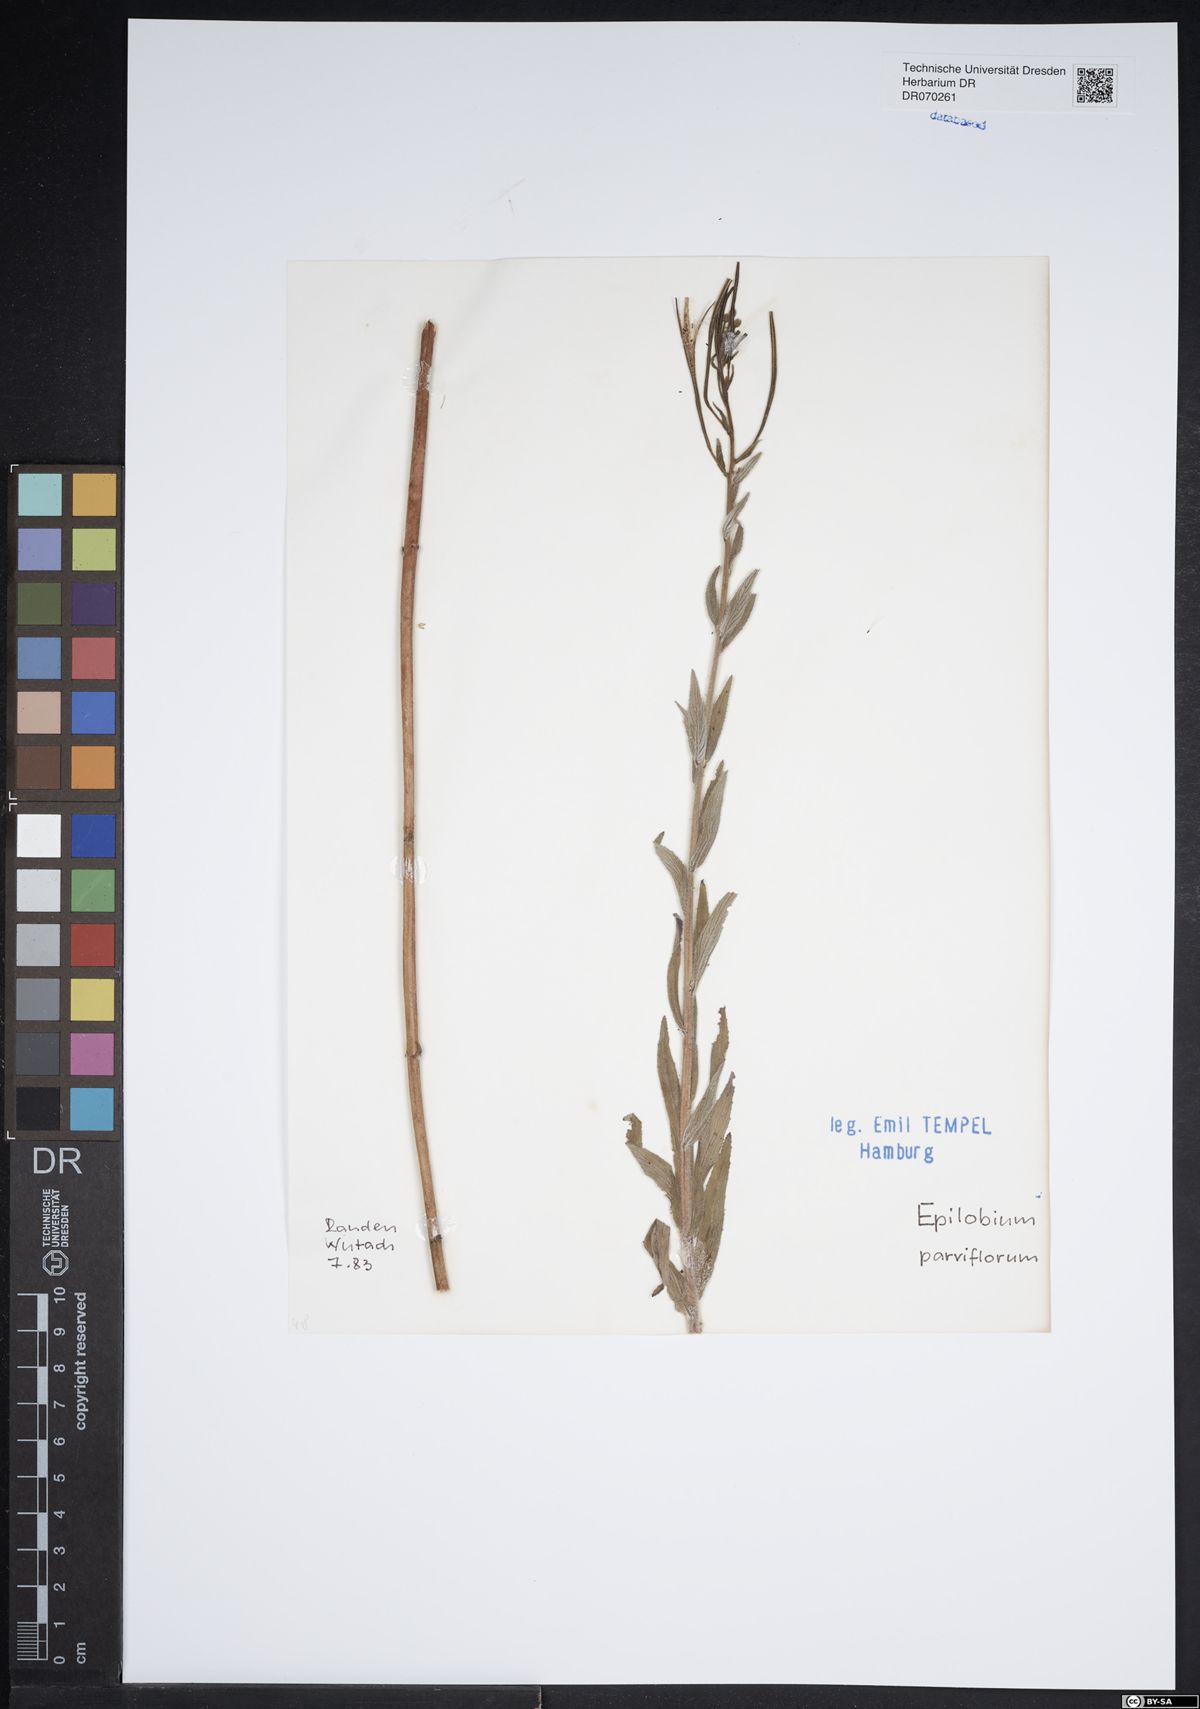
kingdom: Plantae
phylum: Tracheophyta
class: Magnoliopsida
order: Myrtales
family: Onagraceae
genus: Epilobium
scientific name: Epilobium parviflorum
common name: Hoary willowherb
